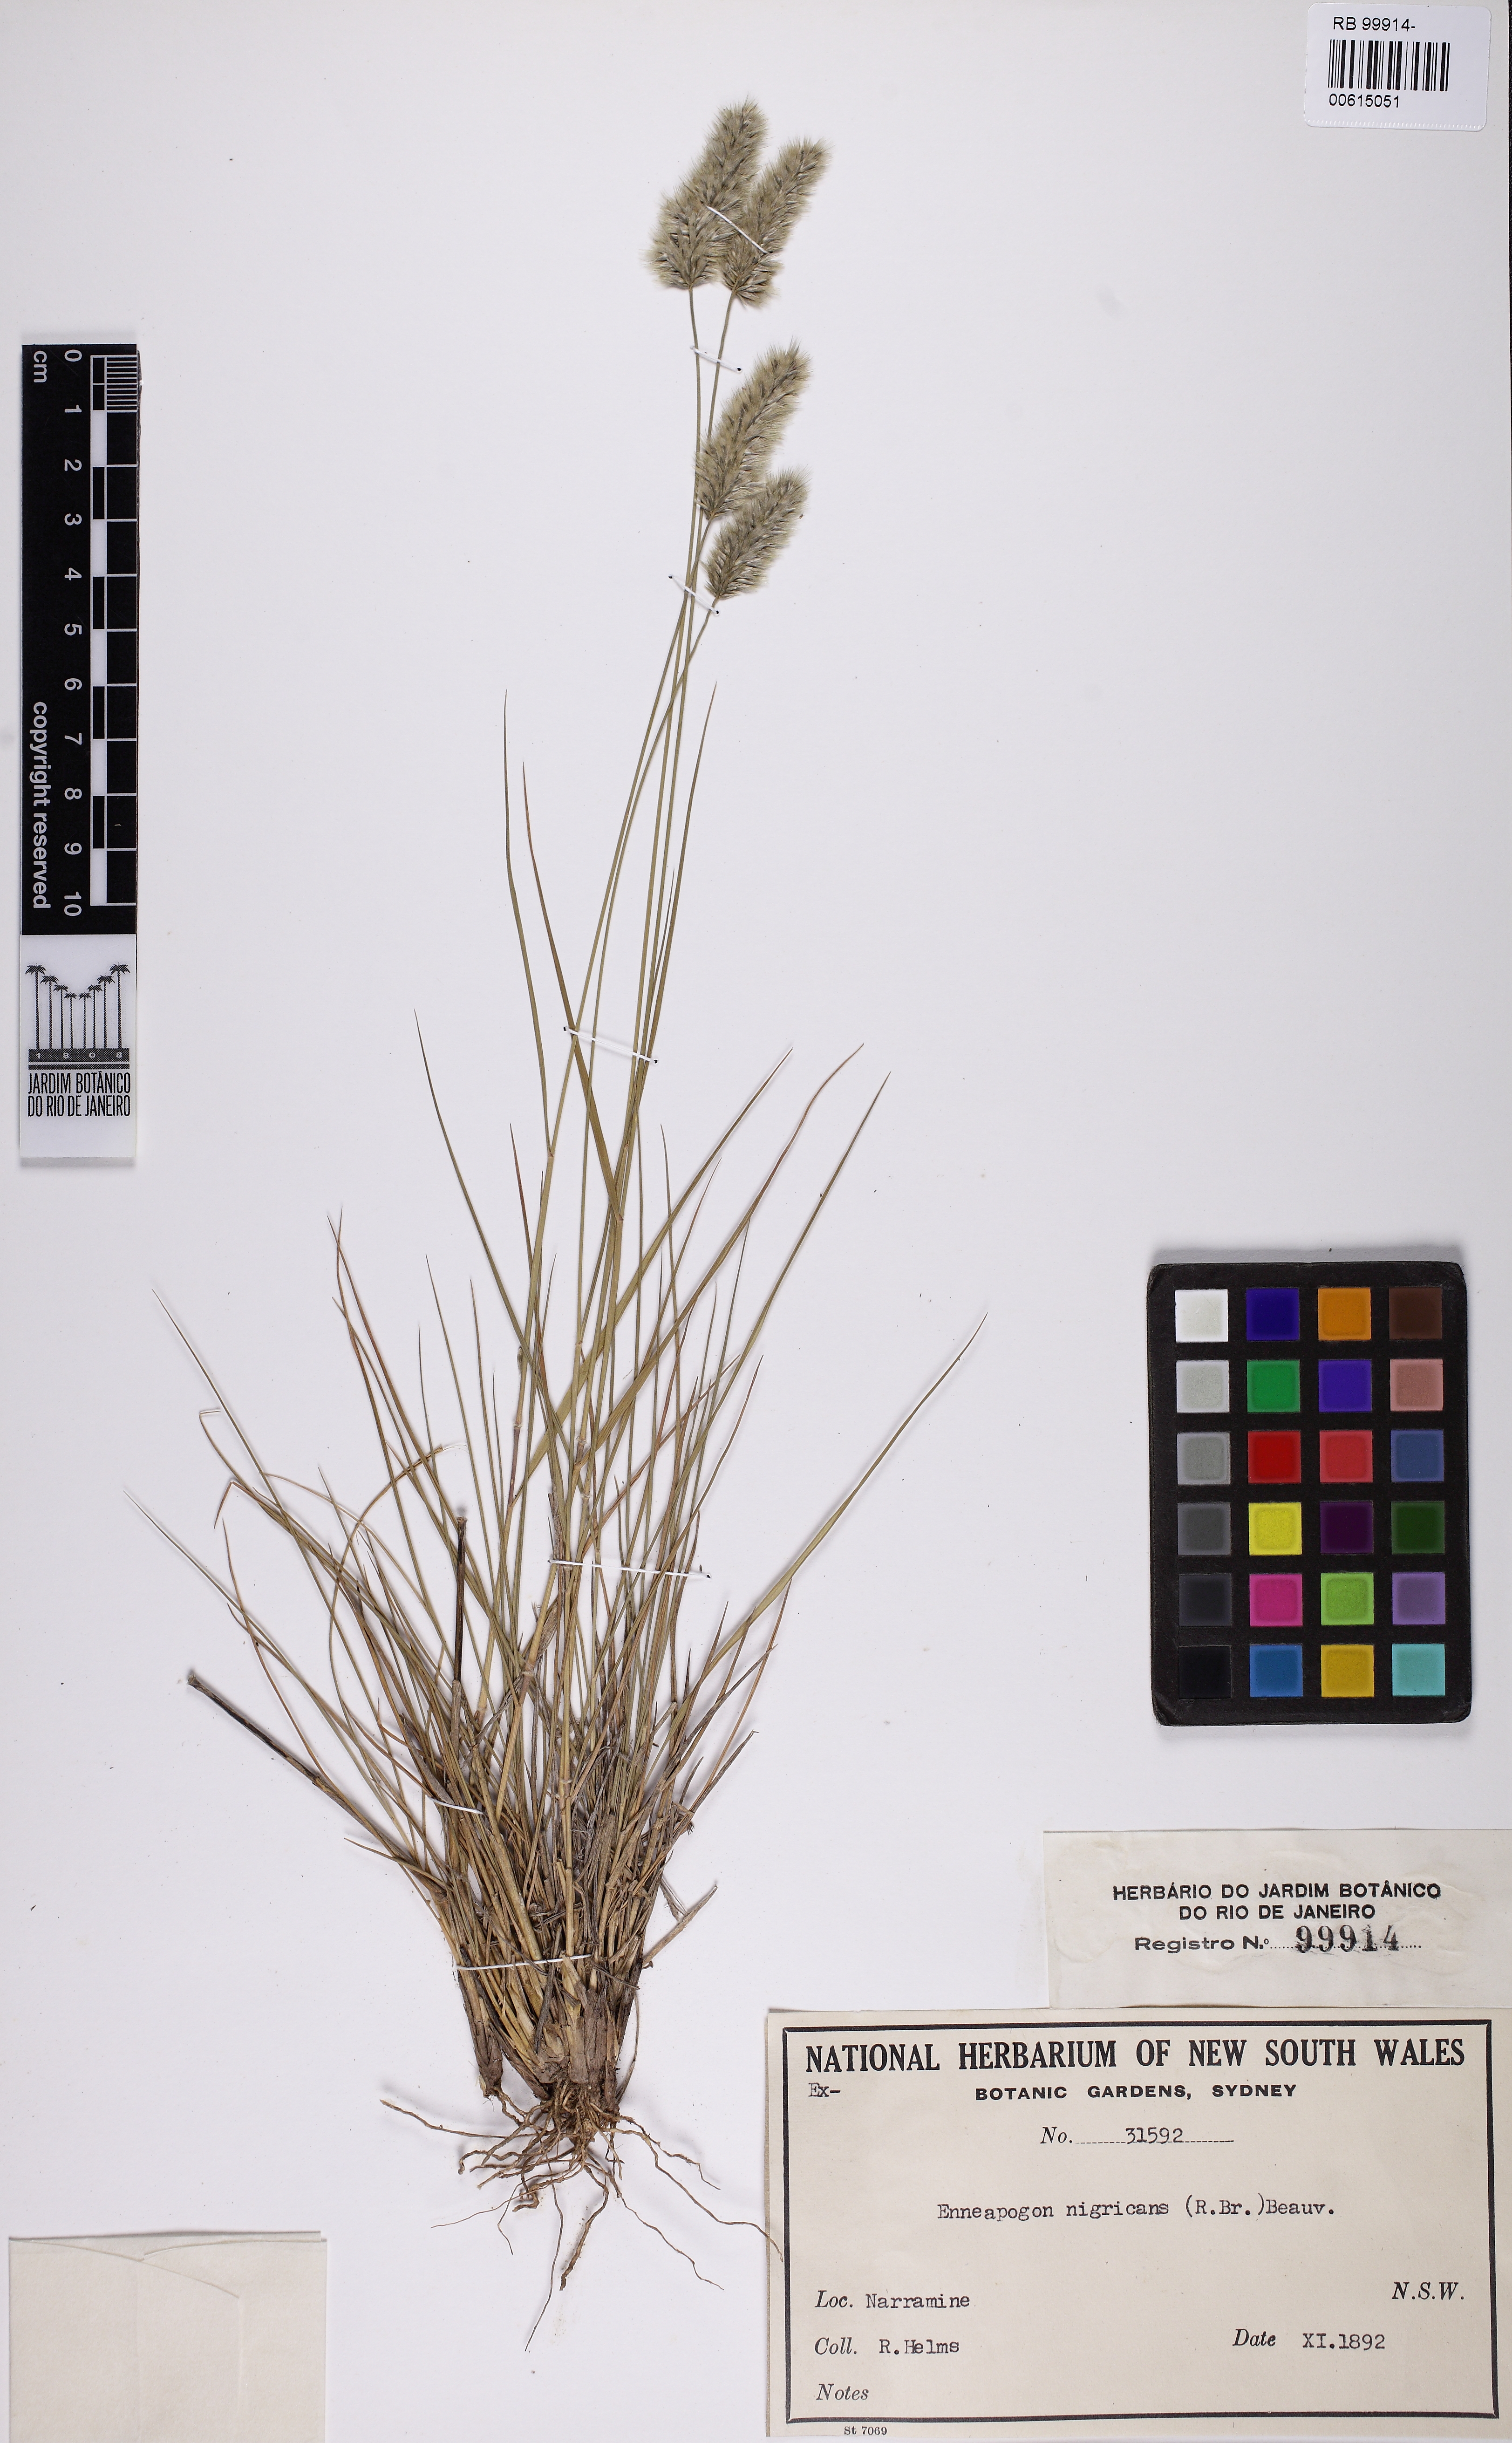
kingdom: Plantae
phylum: Tracheophyta
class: Liliopsida
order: Poales
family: Poaceae
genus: Enneapogon
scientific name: Enneapogon nigricans
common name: Pappus grass
